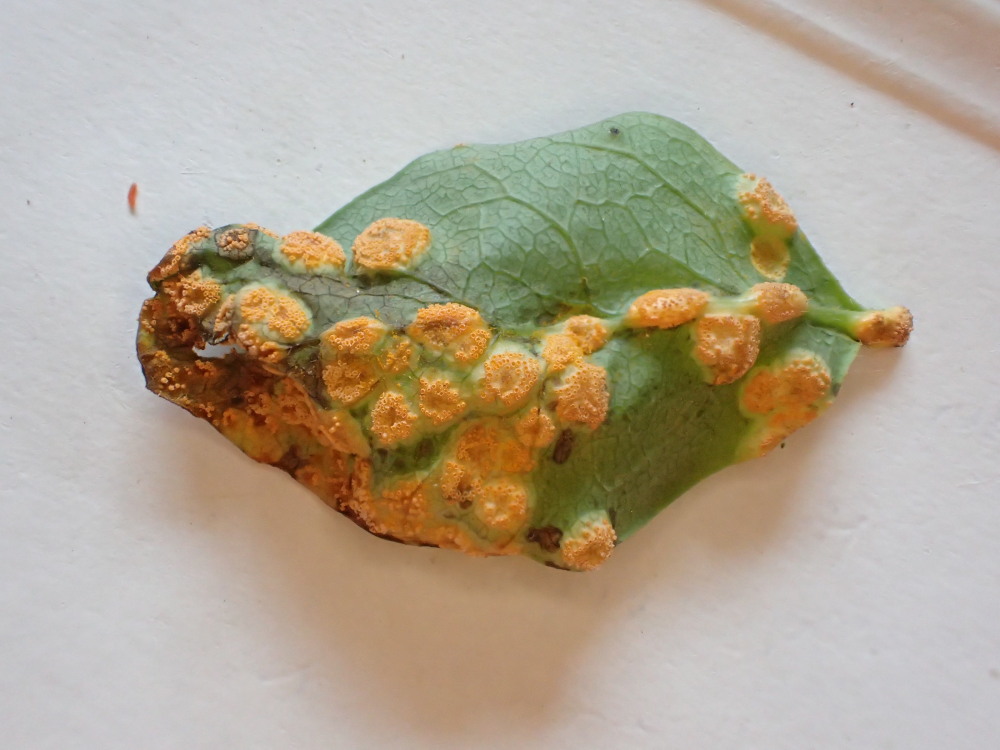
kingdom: Fungi
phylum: Basidiomycota
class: Pucciniomycetes
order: Pucciniales
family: Pucciniaceae
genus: Puccinia
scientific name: Puccinia festucae
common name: gedeblad-tvecellerust
